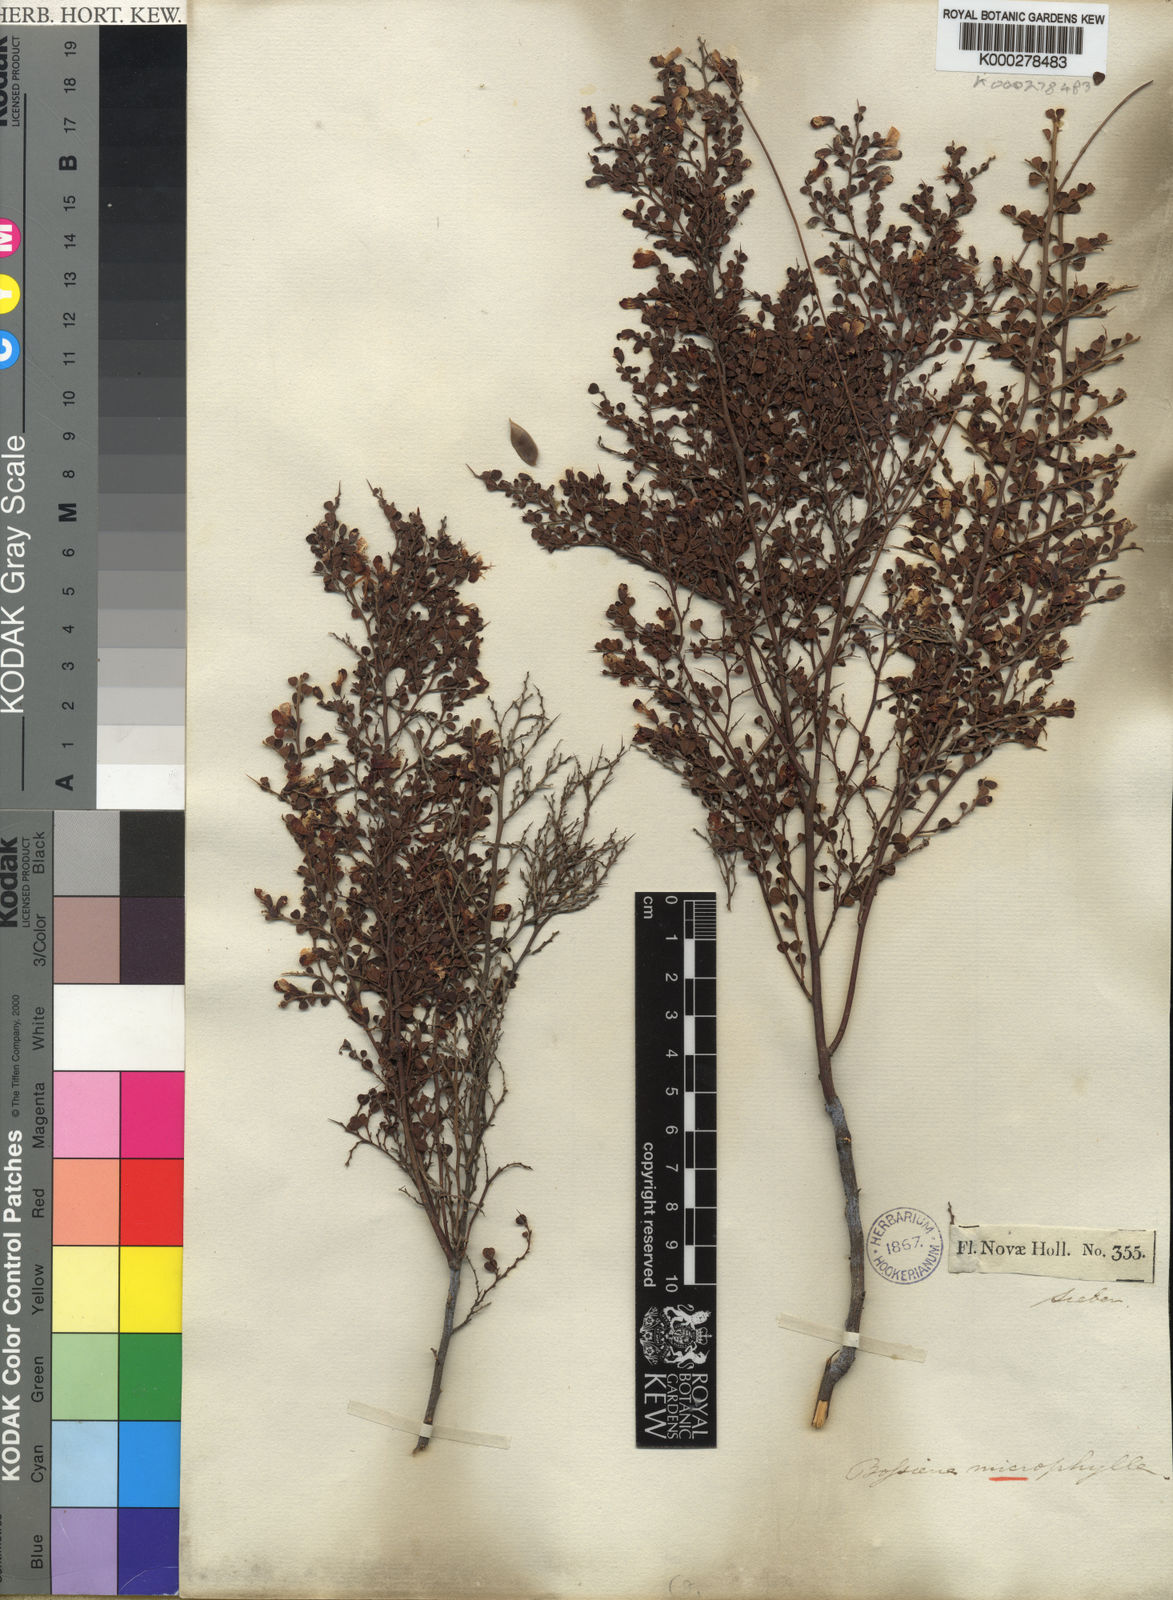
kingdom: Plantae
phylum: Tracheophyta
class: Magnoliopsida
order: Fabales
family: Fabaceae
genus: Bossiaea
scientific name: Bossiaea obcordata
